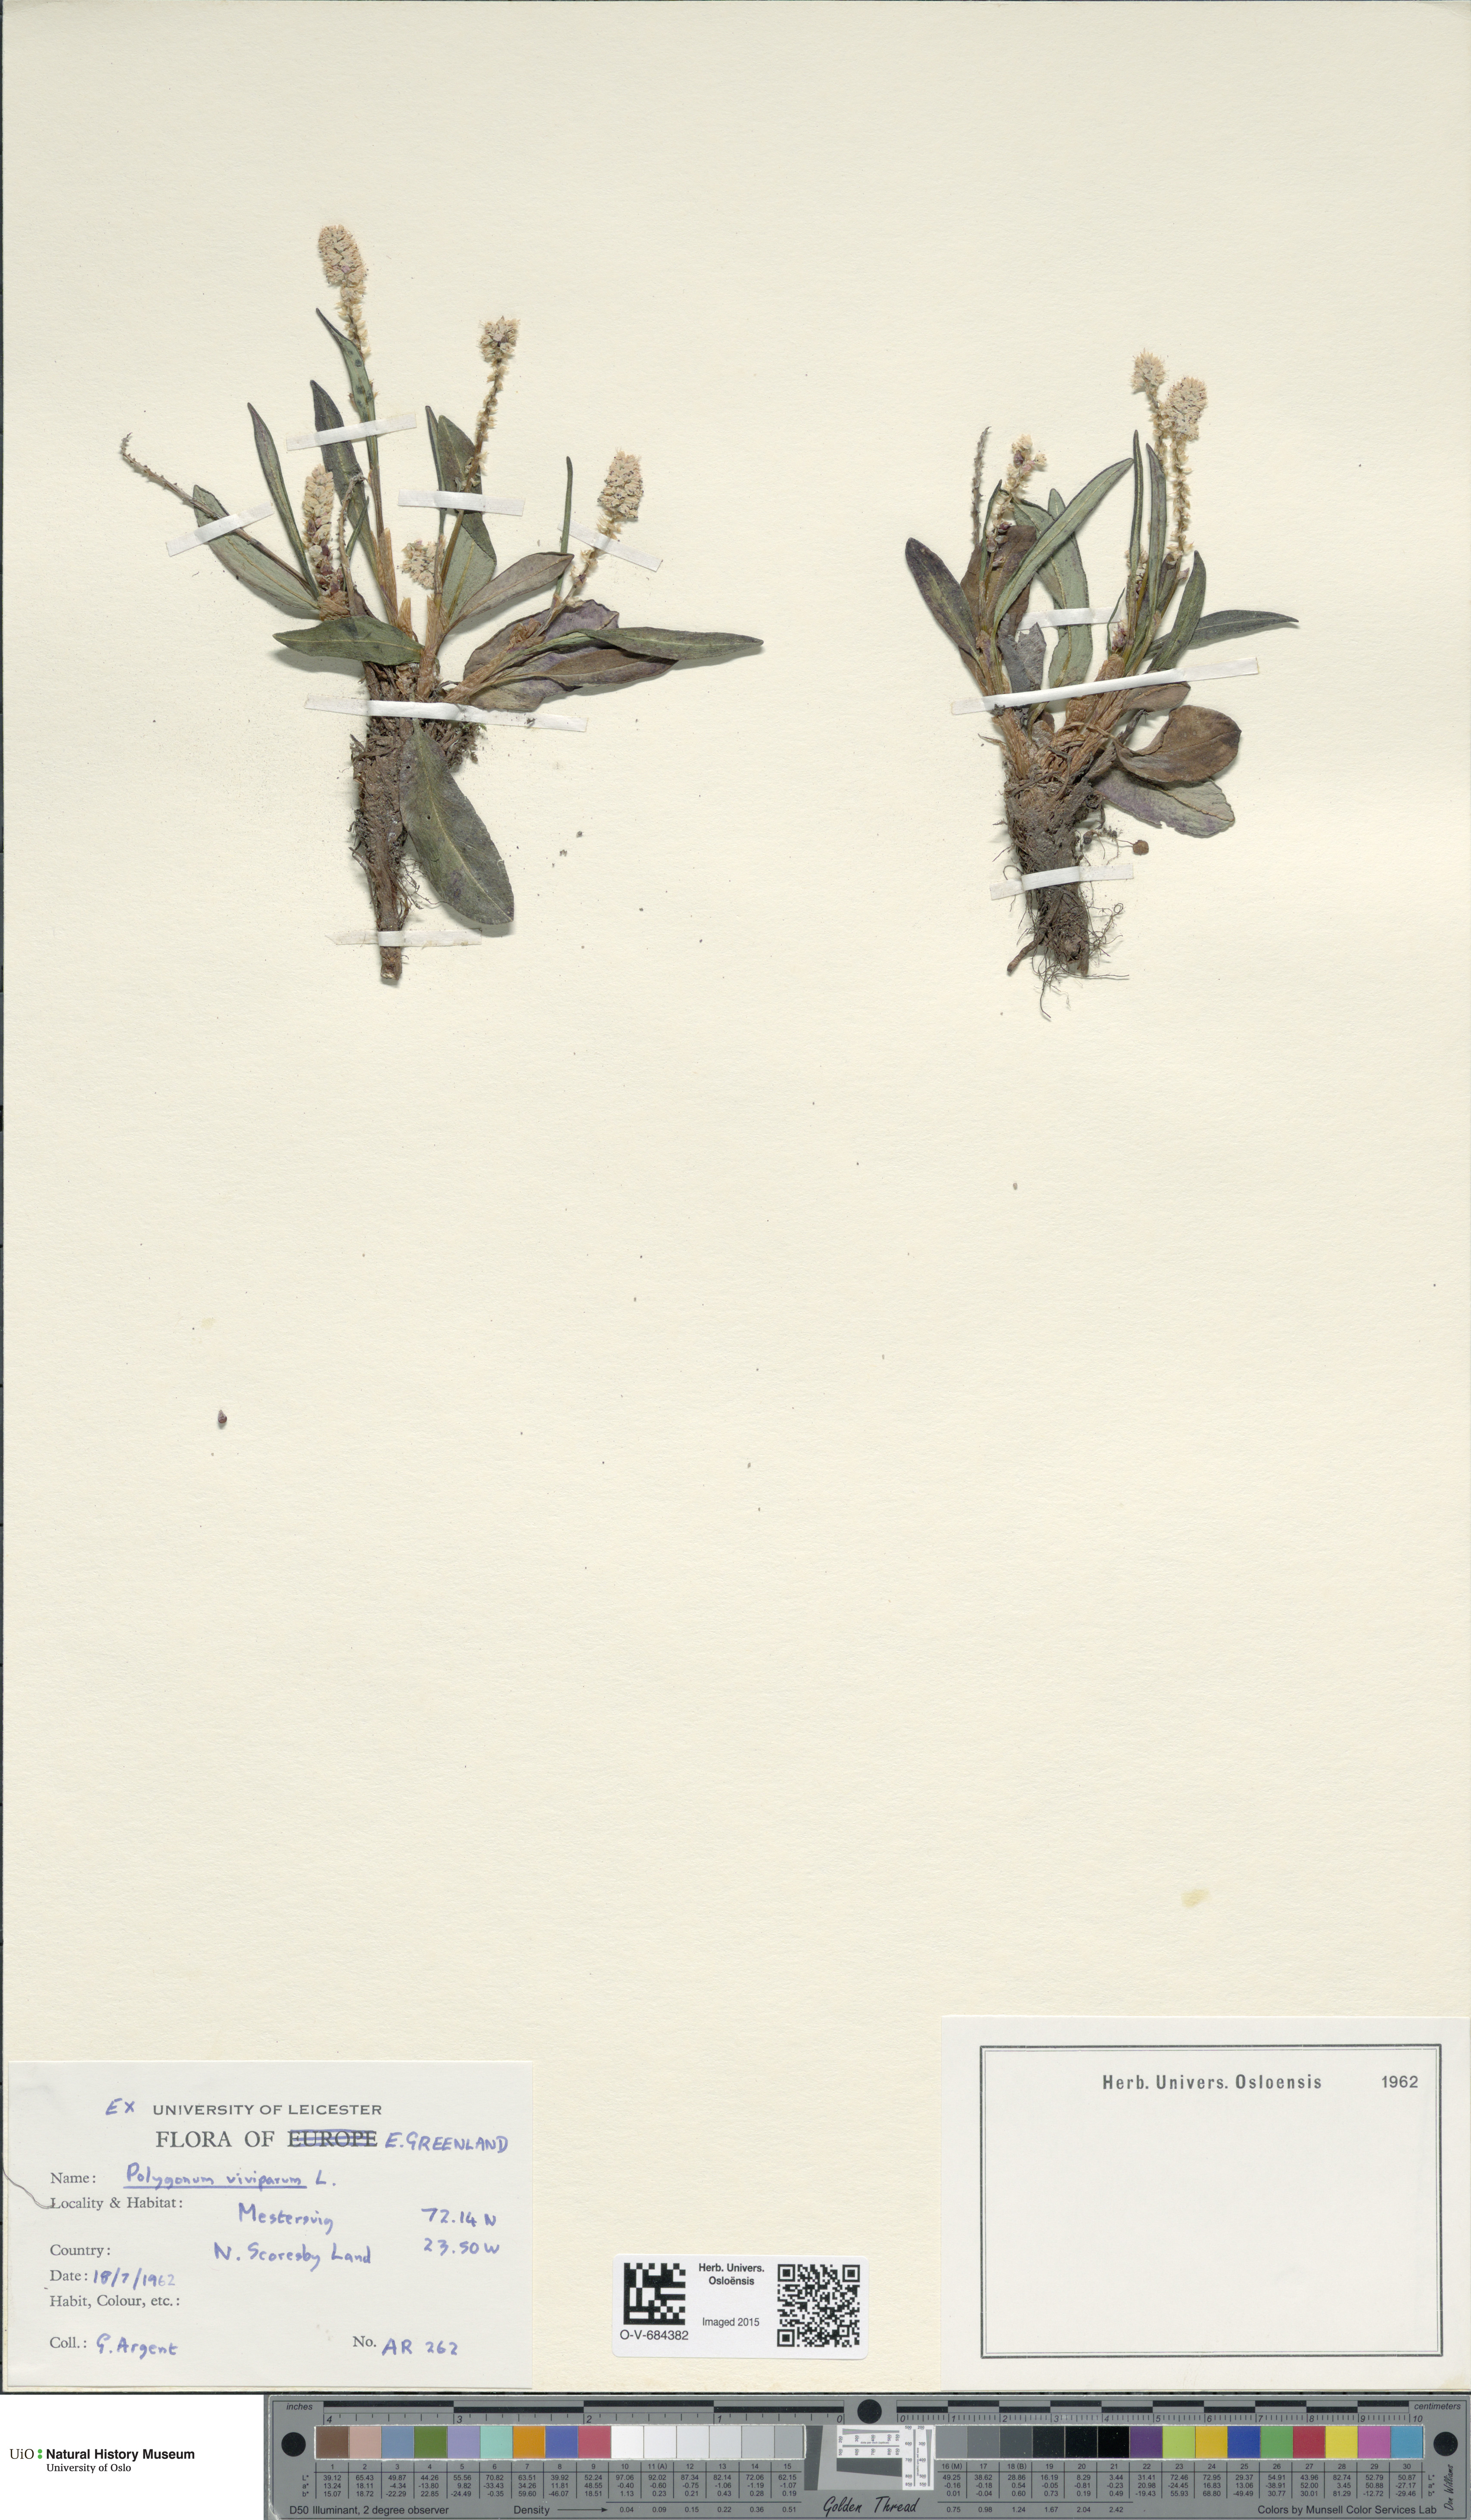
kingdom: Plantae
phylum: Tracheophyta
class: Magnoliopsida
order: Caryophyllales
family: Polygonaceae
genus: Bistorta
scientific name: Bistorta vivipara
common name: Alpine bistort
